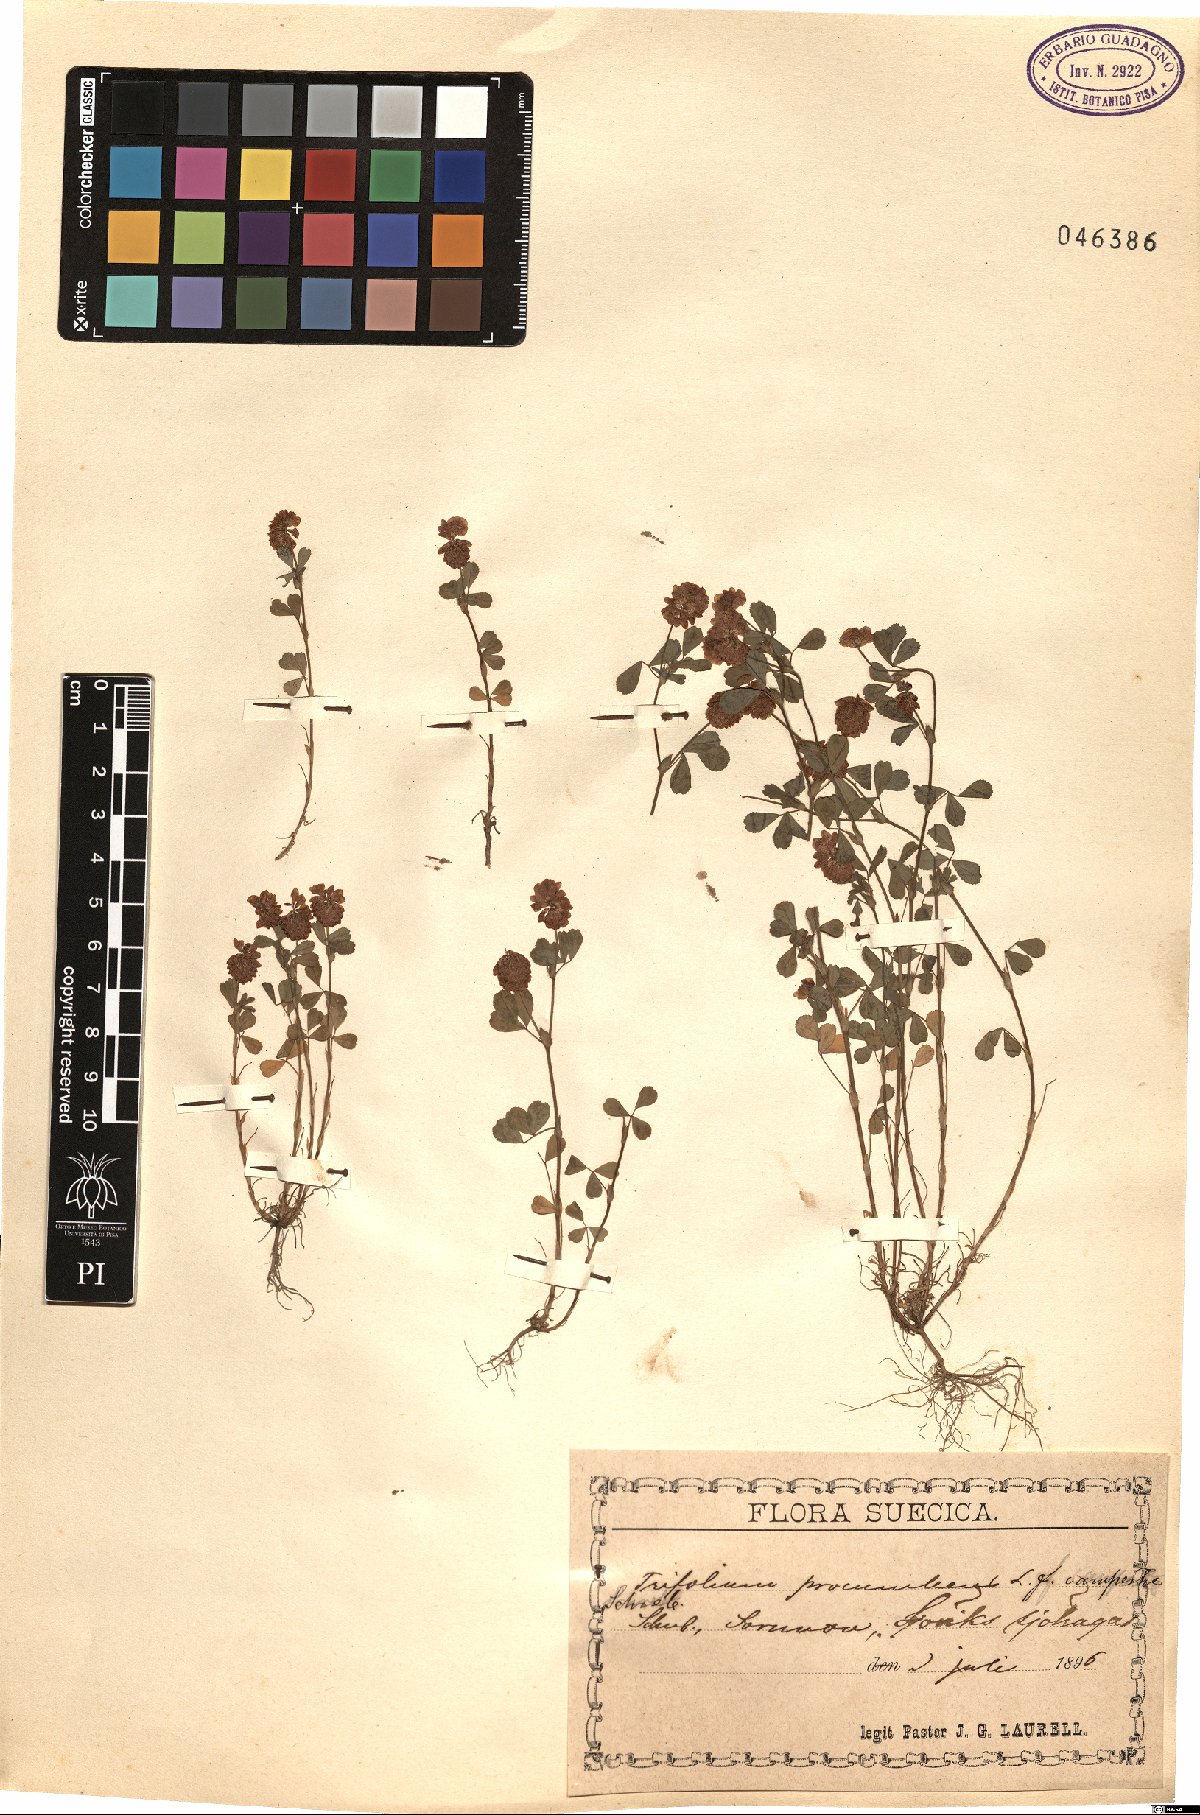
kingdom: Plantae
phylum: Tracheophyta
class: Magnoliopsida
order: Fabales
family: Fabaceae
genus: Trifolium
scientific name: Trifolium campestre
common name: Field clover
